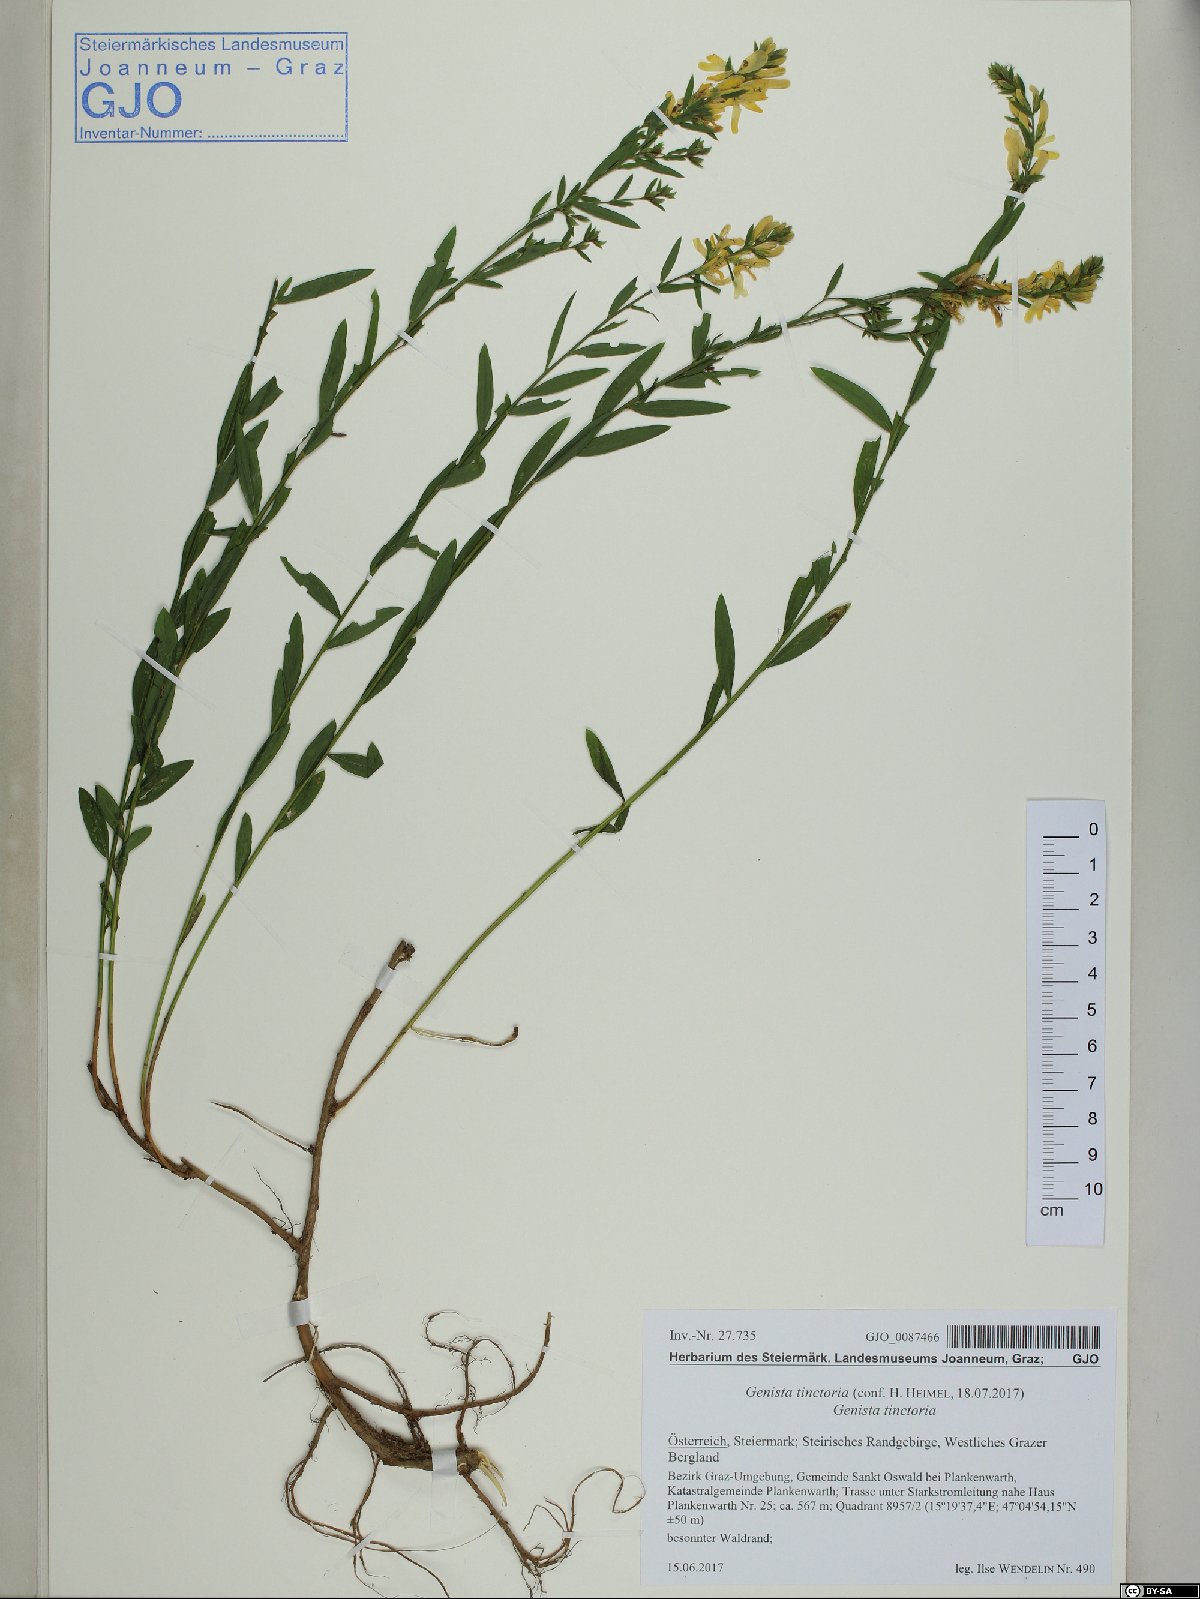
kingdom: Plantae
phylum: Tracheophyta
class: Magnoliopsida
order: Fabales
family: Fabaceae
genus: Genista
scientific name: Genista tinctoria
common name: Dyer's greenweed
